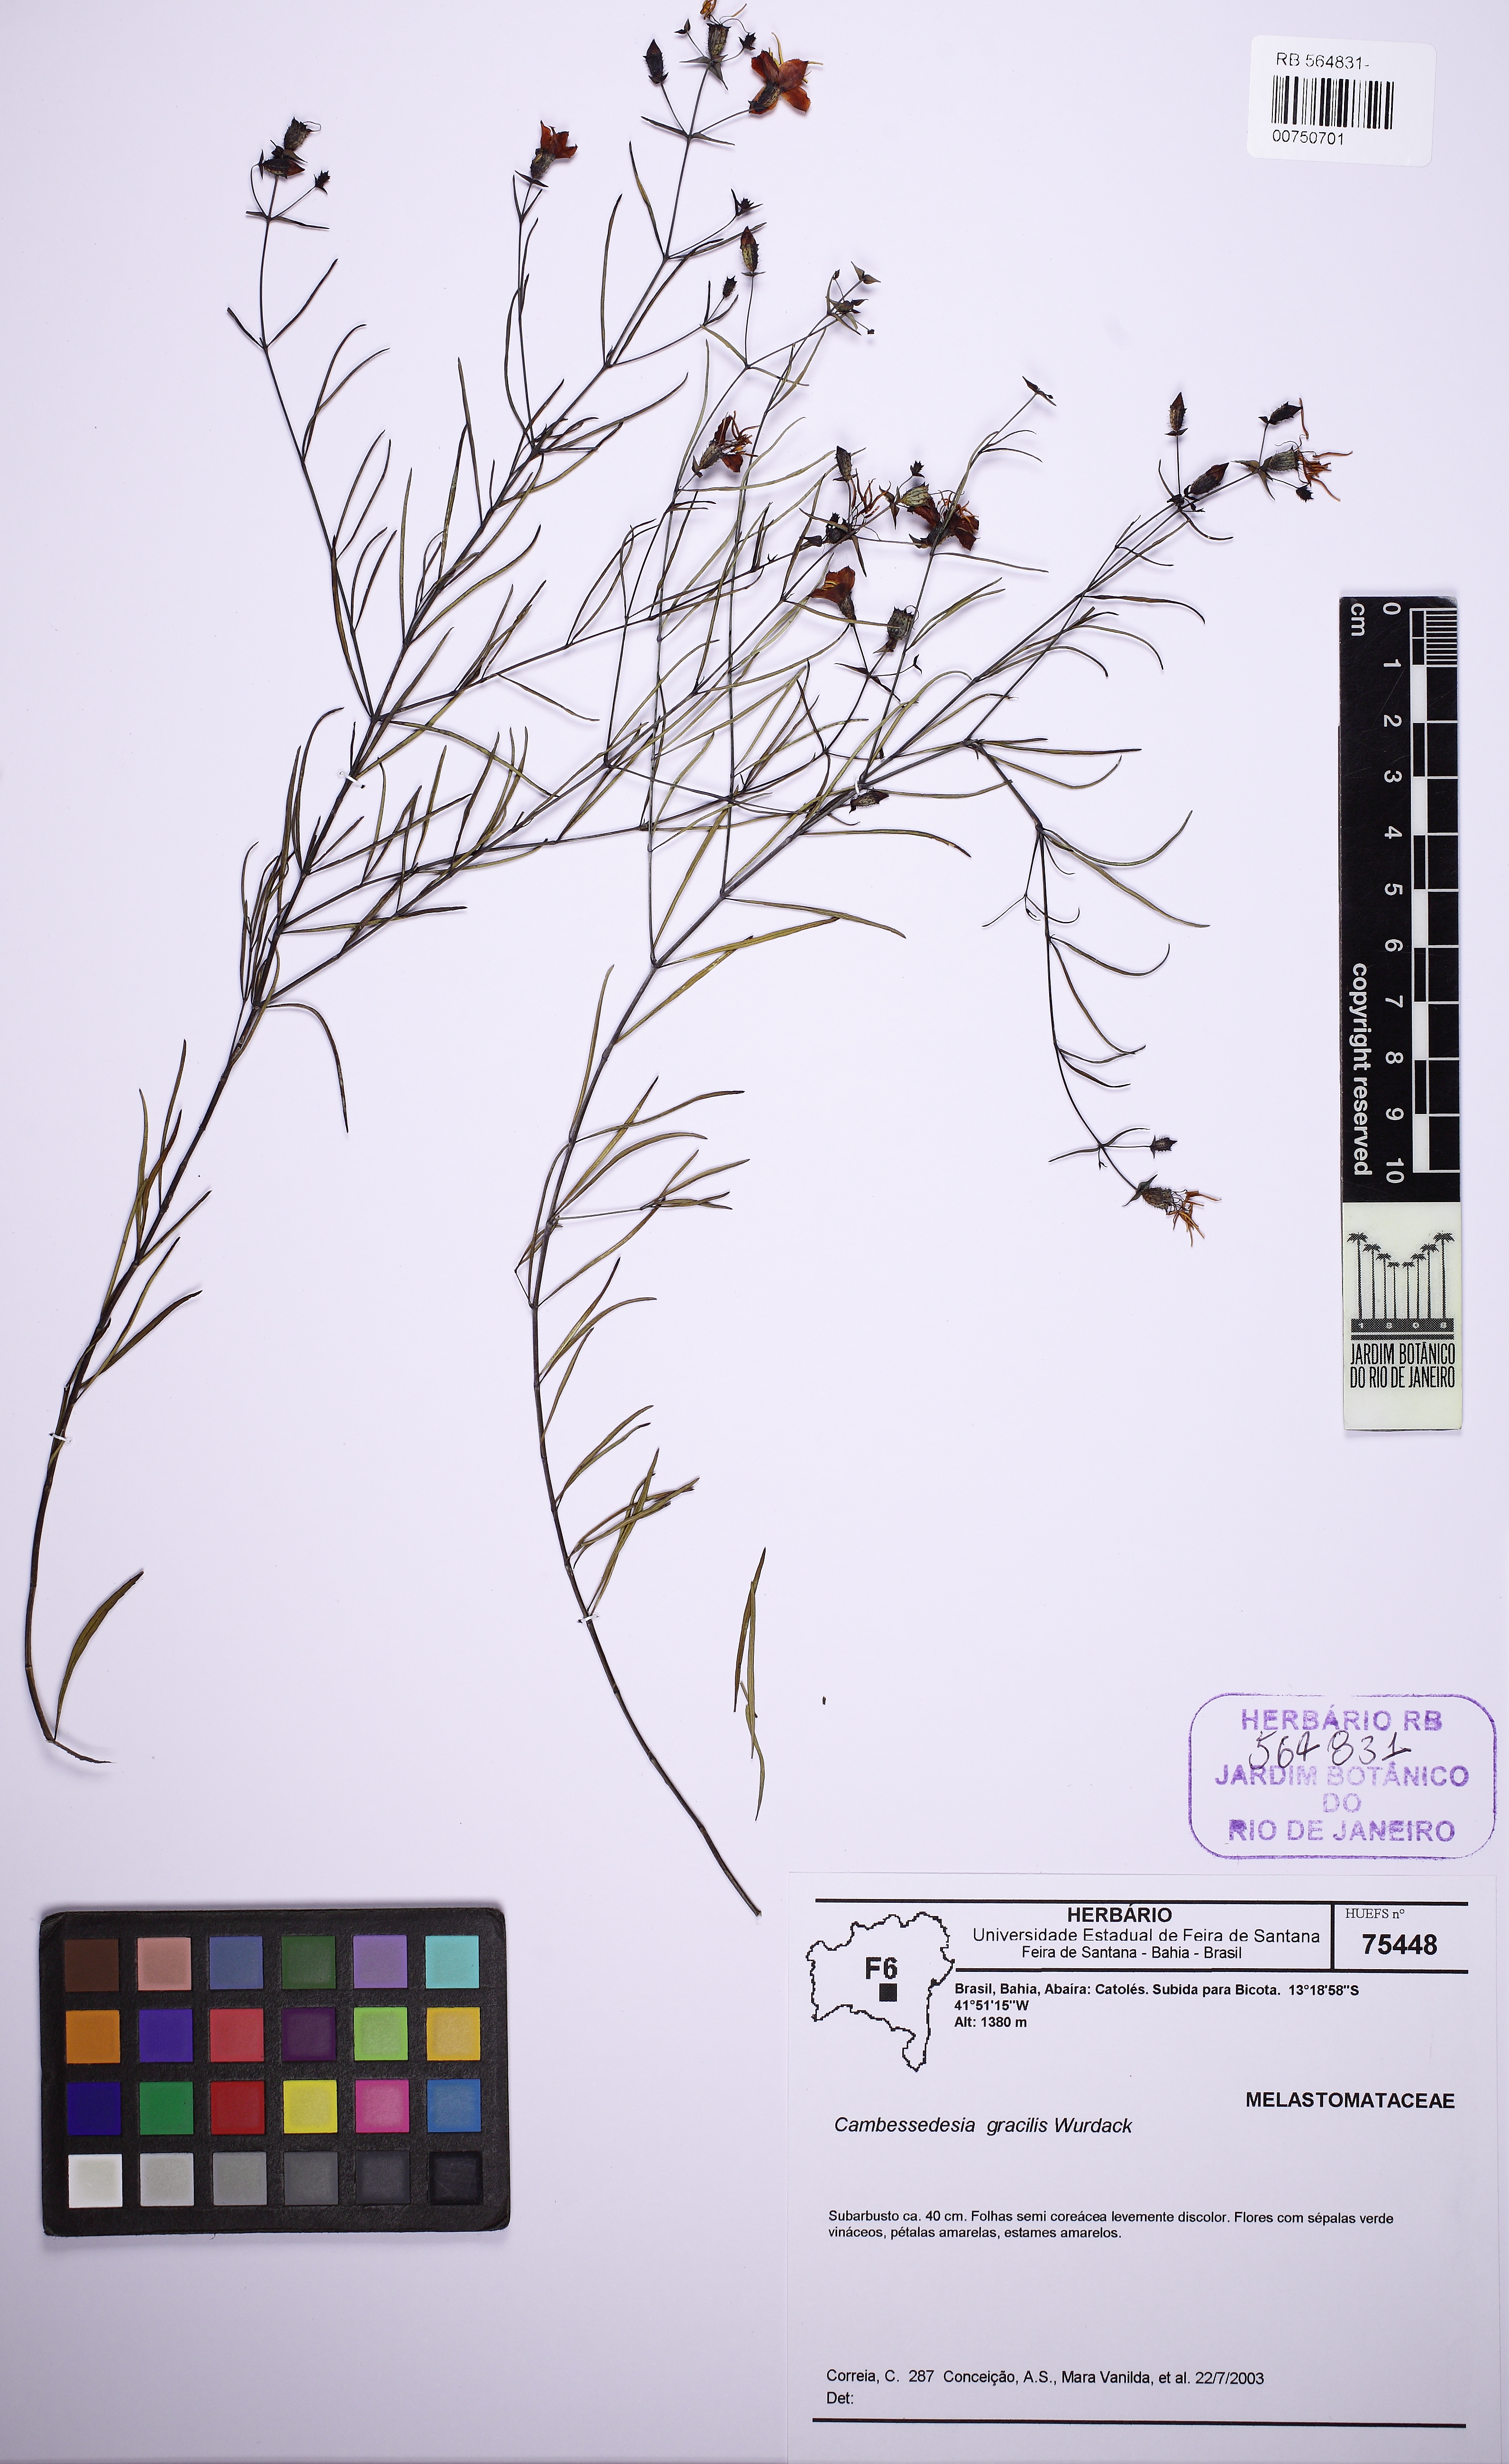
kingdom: Plantae
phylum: Tracheophyta
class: Magnoliopsida
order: Myrtales
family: Melastomataceae
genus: Cambessedesia
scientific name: Cambessedesia gracilis
